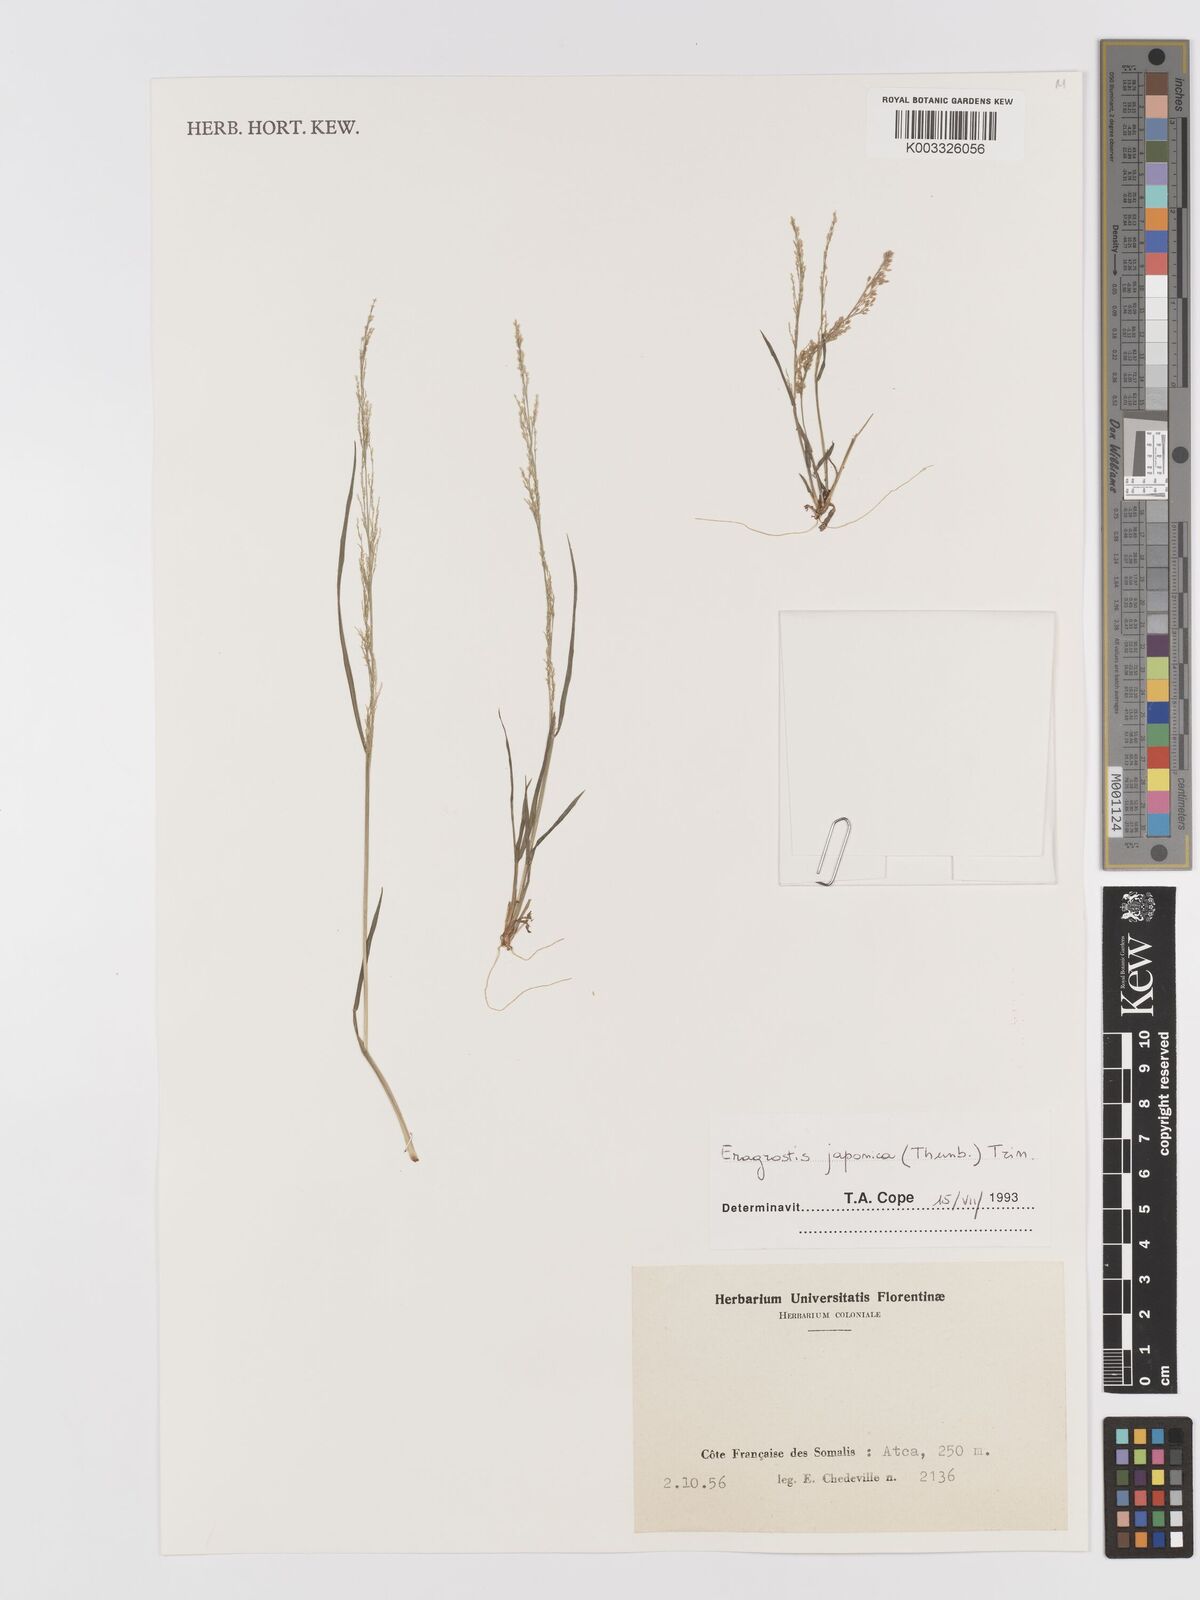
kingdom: Plantae
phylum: Tracheophyta
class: Liliopsida
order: Poales
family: Poaceae
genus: Eragrostis
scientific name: Eragrostis japonica
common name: Pond lovegrass
